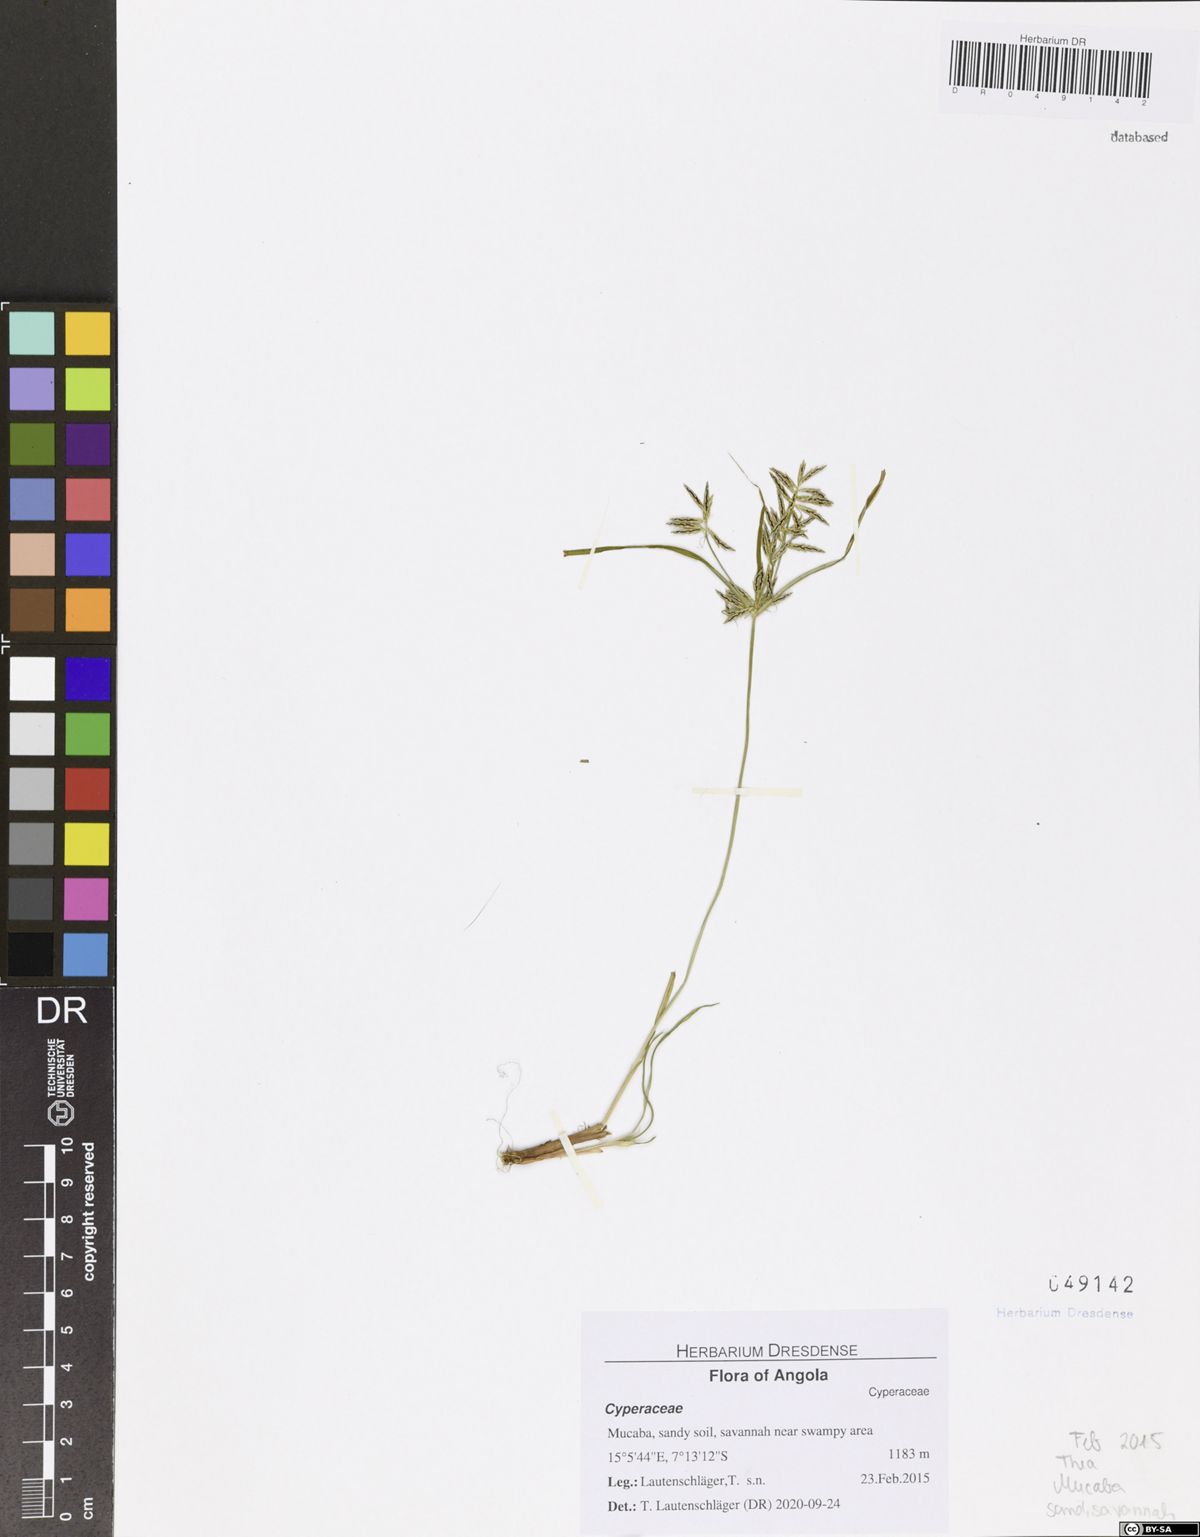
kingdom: Plantae
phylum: Tracheophyta
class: Liliopsida
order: Poales
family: Cyperaceae
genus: Cyperus
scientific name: Cyperus sphacelatus
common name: Roadside flatsedge
